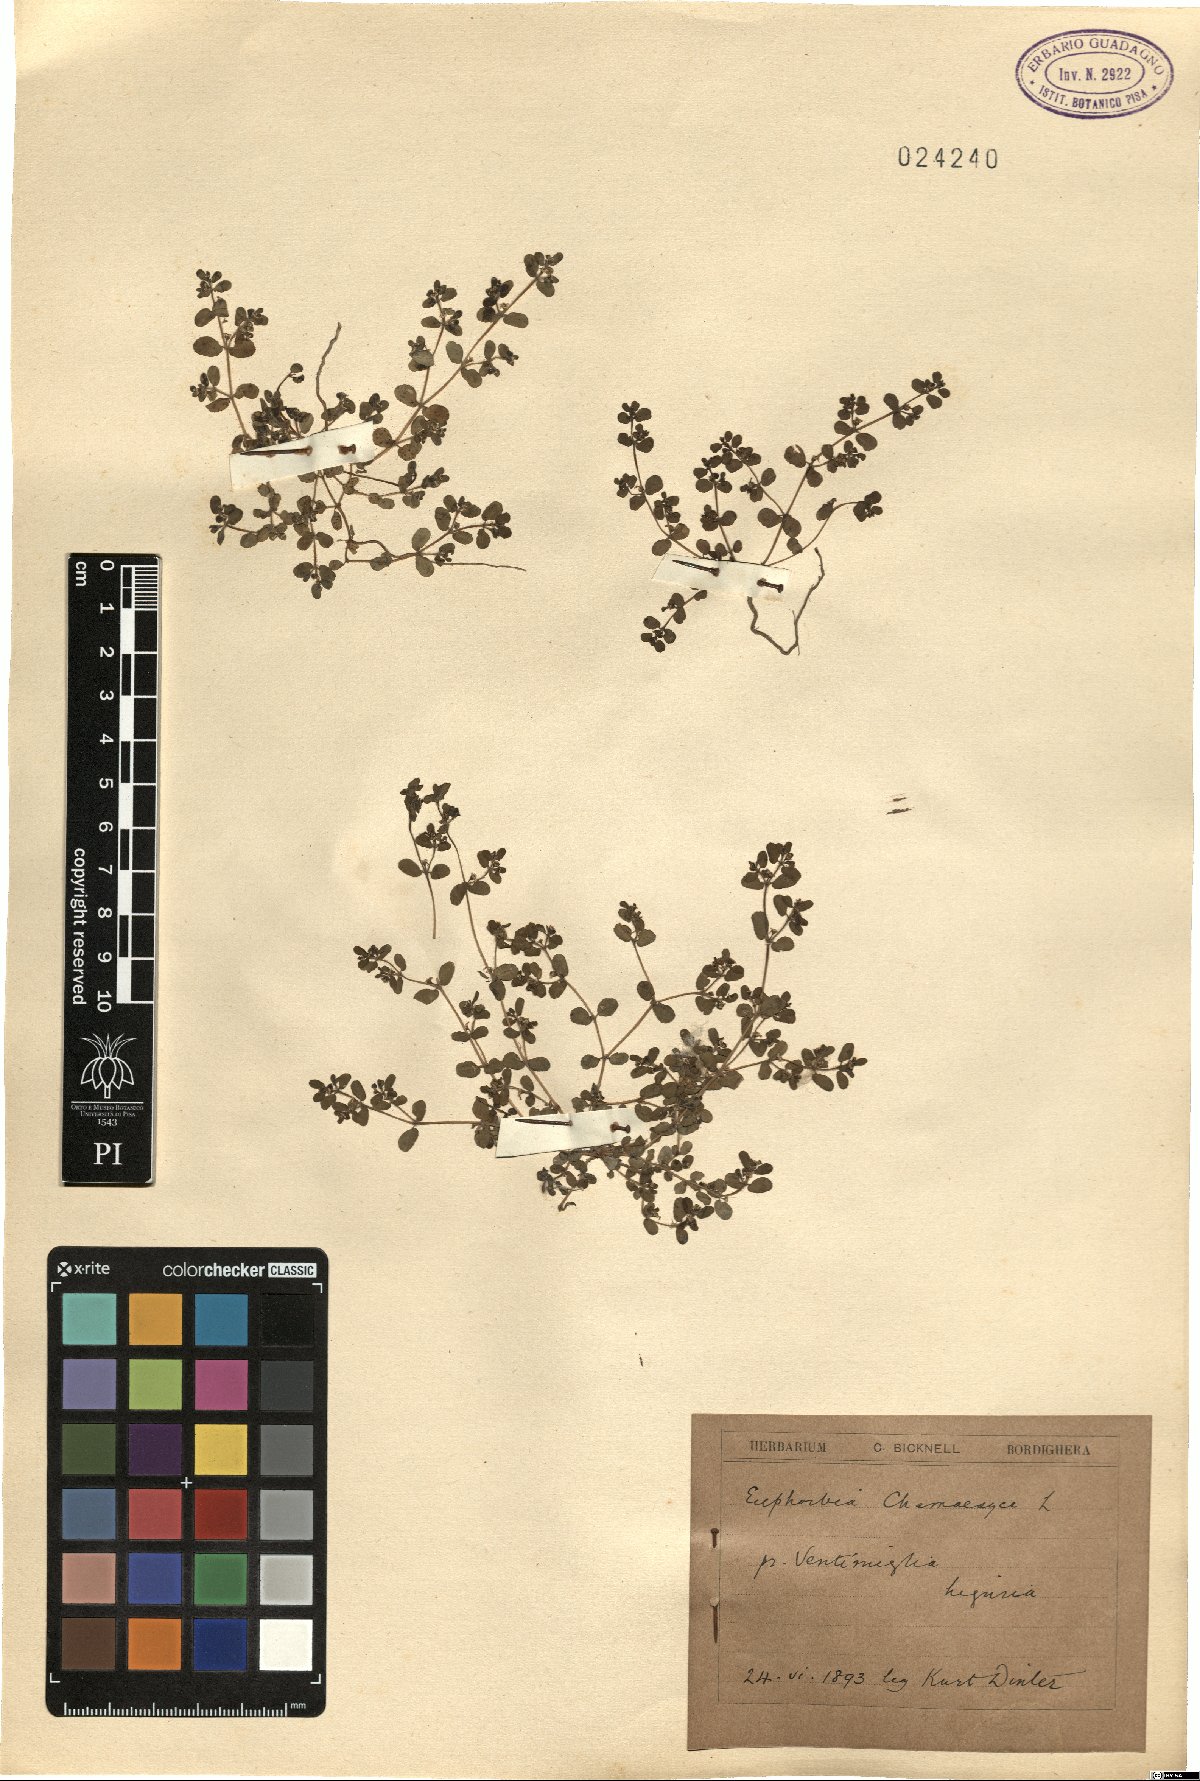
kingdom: Plantae
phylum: Tracheophyta
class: Magnoliopsida
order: Malpighiales
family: Euphorbiaceae
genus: Euphorbia
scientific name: Euphorbia chamaesyce
